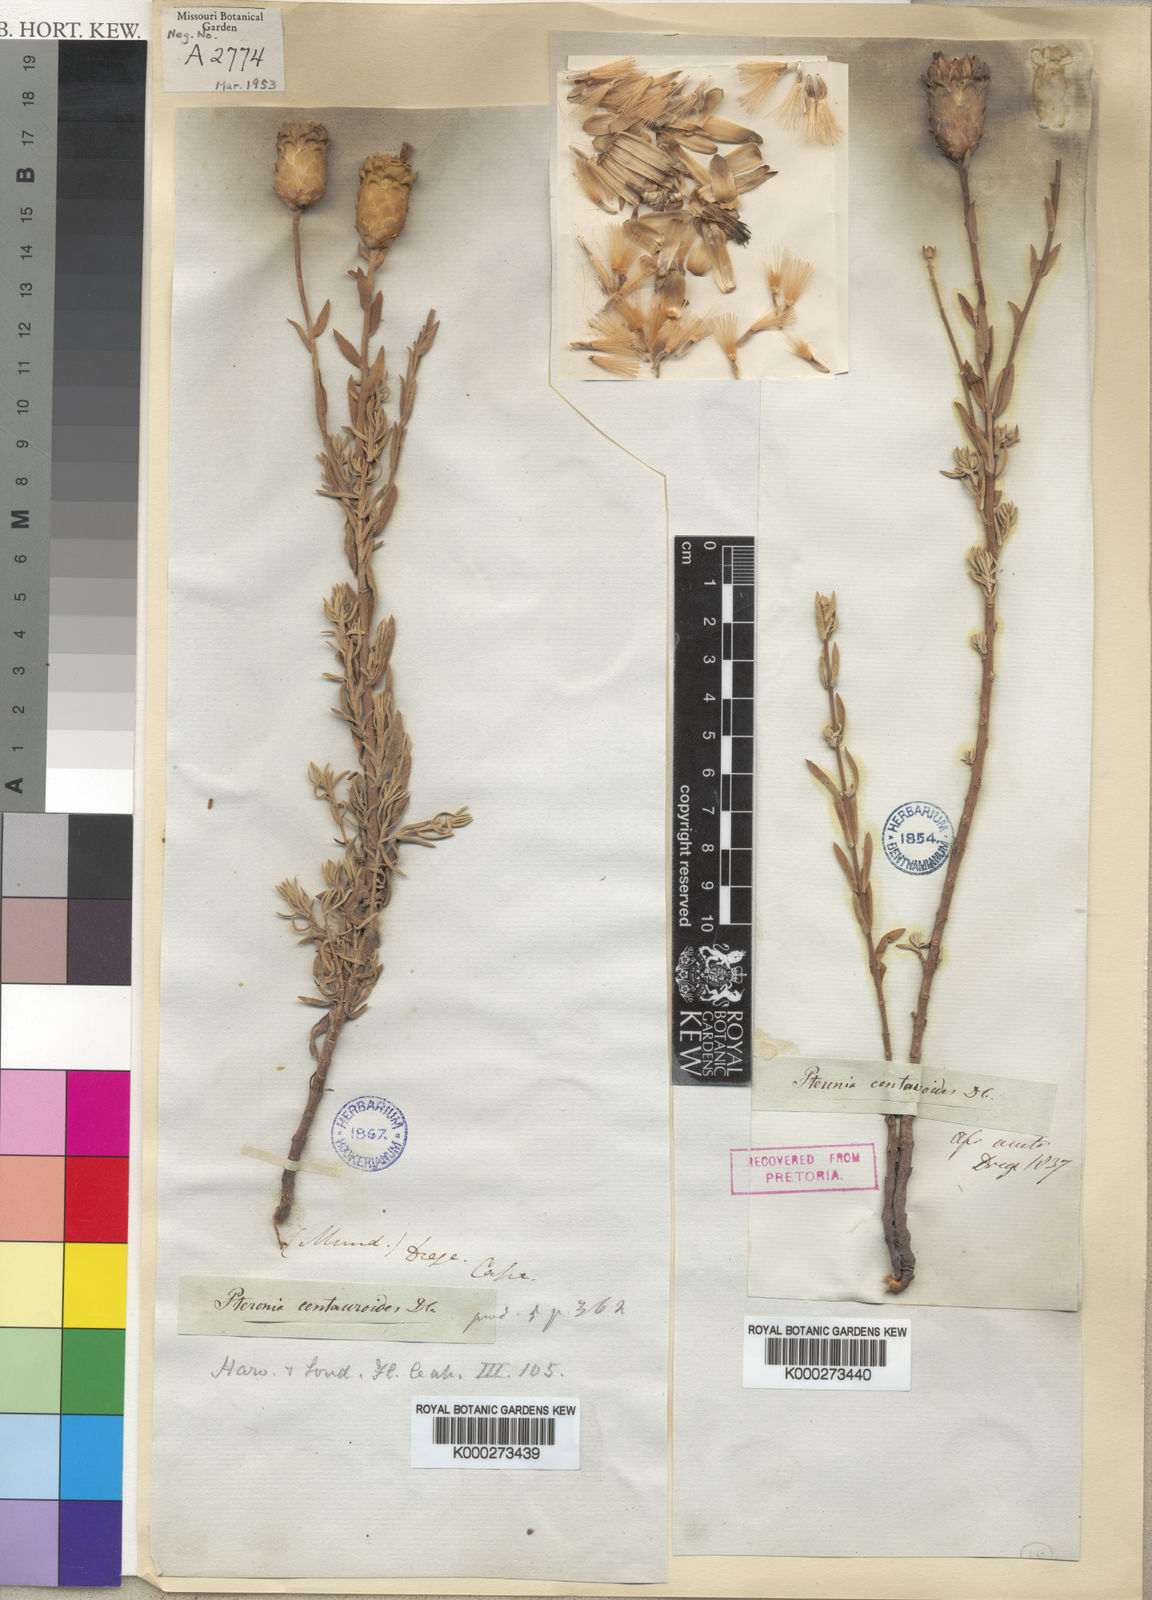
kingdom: Plantae
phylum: Tracheophyta
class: Magnoliopsida
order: Asterales
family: Asteraceae
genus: Pteronia
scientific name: Pteronia centauroides
